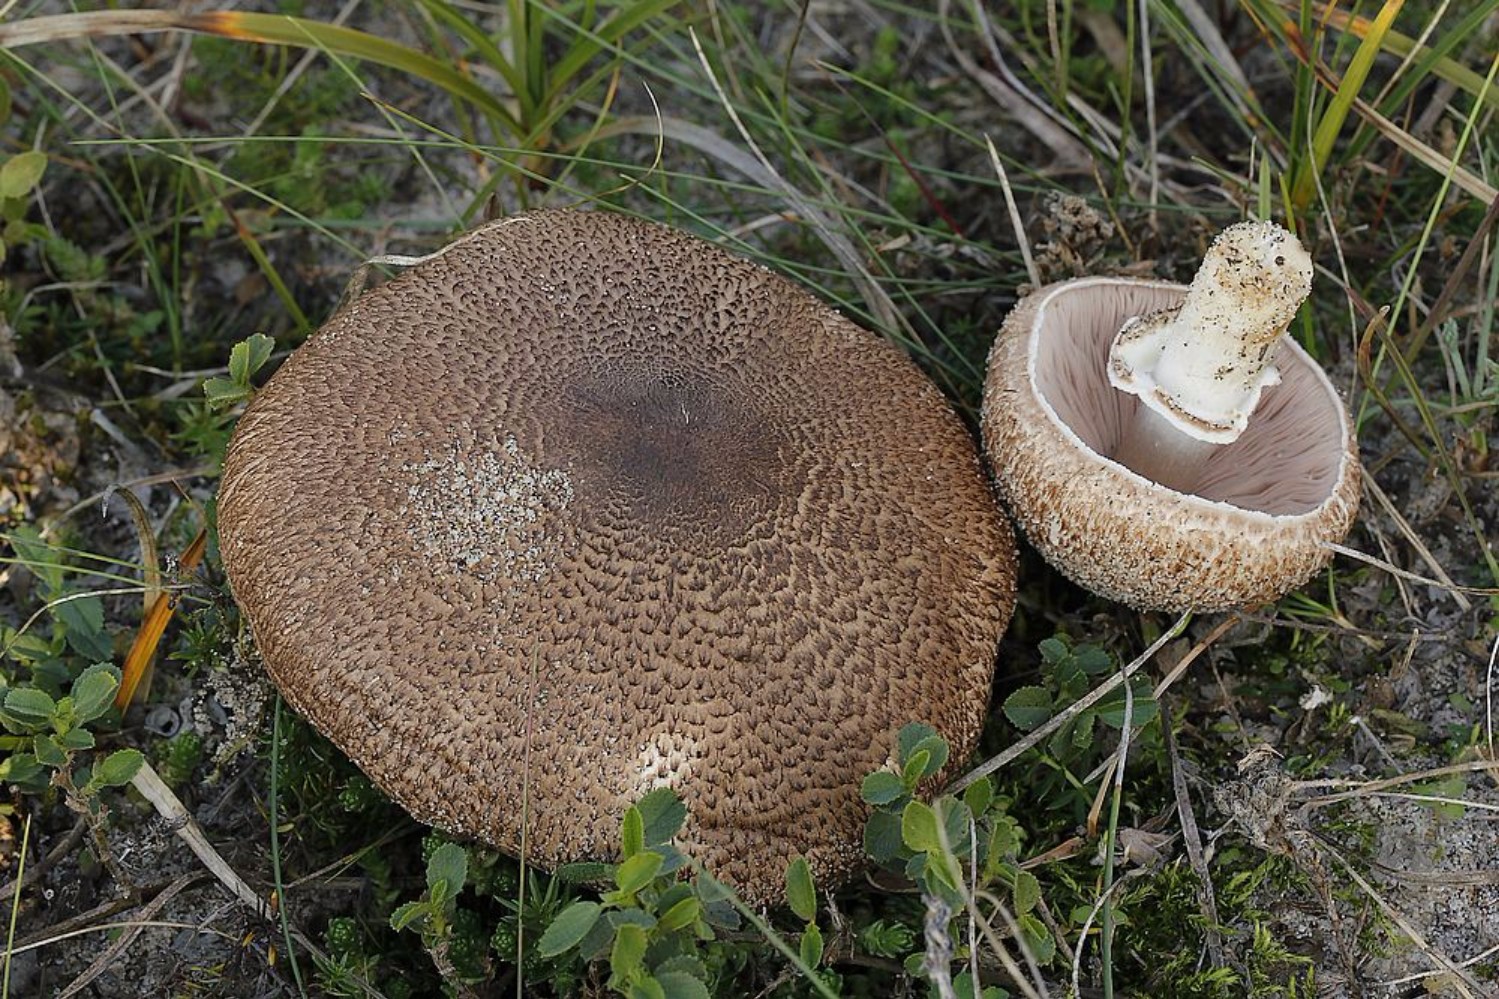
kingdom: Fungi
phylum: Basidiomycota
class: Agaricomycetes
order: Agaricales
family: Agaricaceae
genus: Agaricus
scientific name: Agaricus augustus
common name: prægtig champignon
